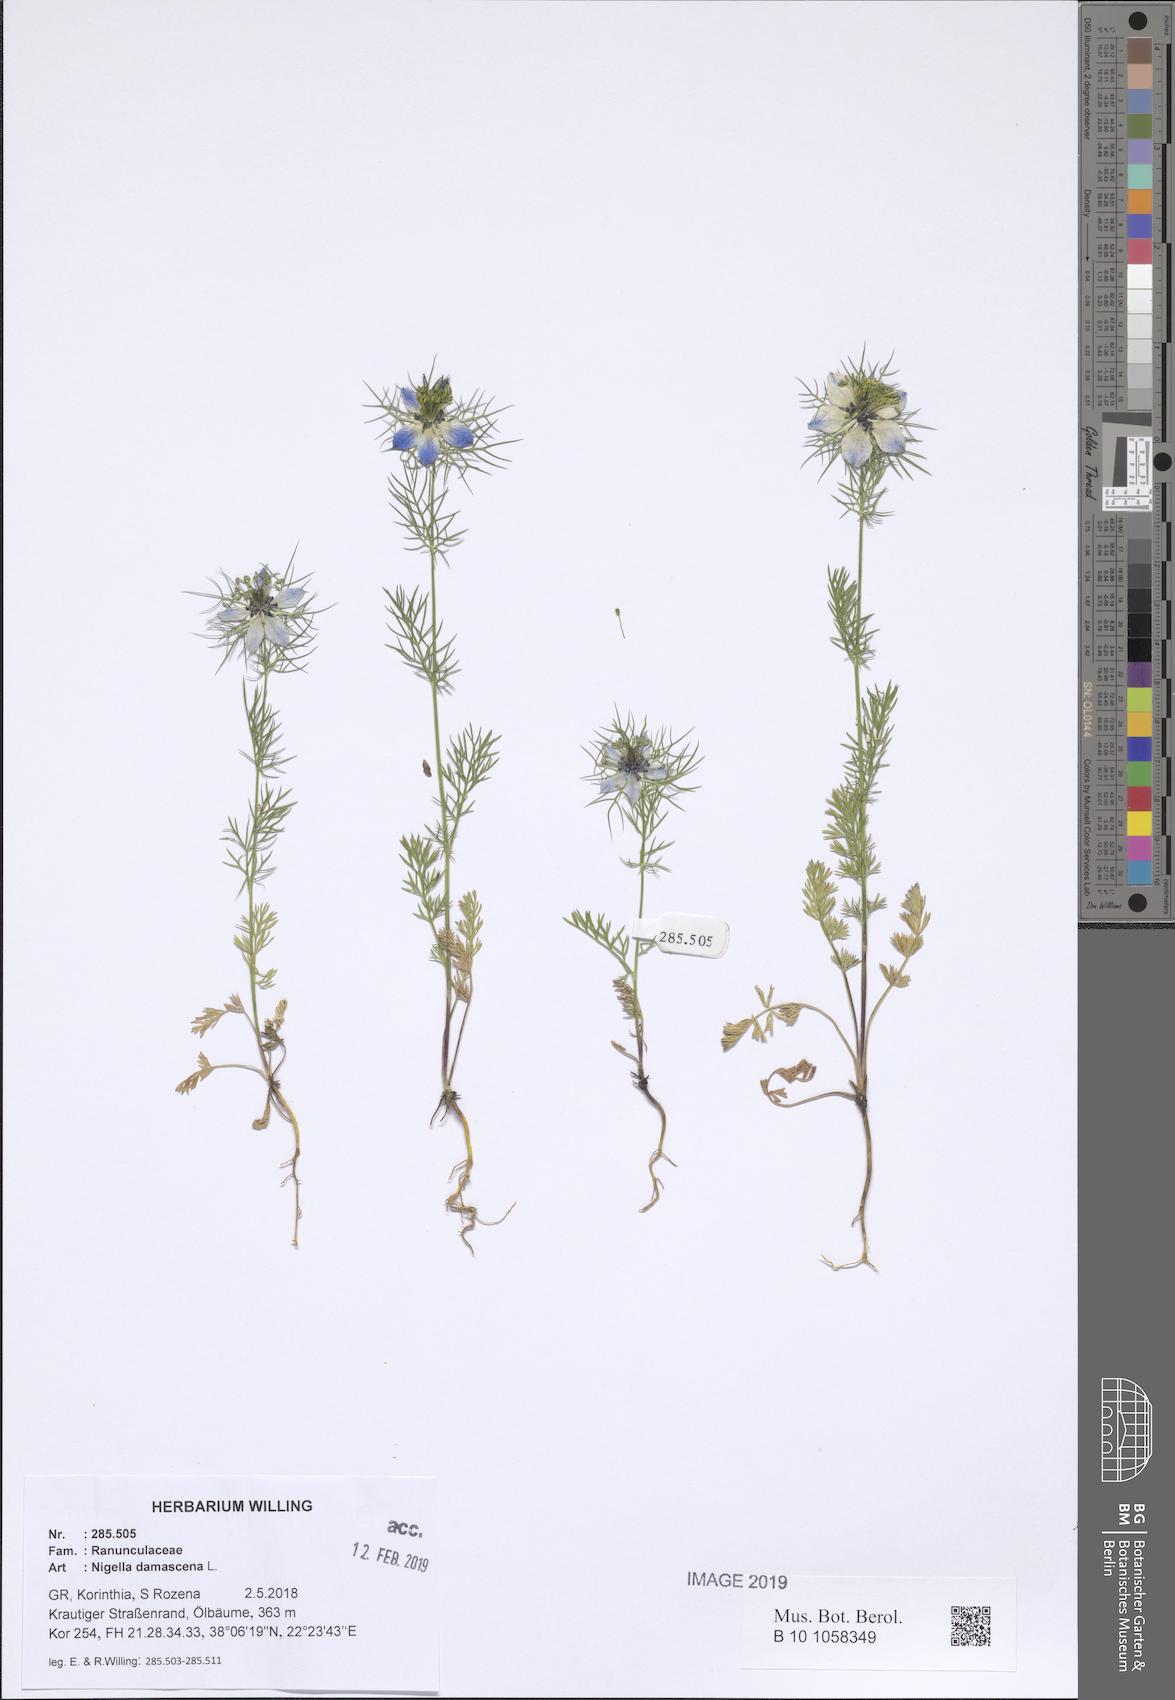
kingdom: Plantae
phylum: Tracheophyta
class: Magnoliopsida
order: Ranunculales
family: Ranunculaceae
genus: Nigella
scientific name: Nigella damascena
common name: Love-in-a-mist
